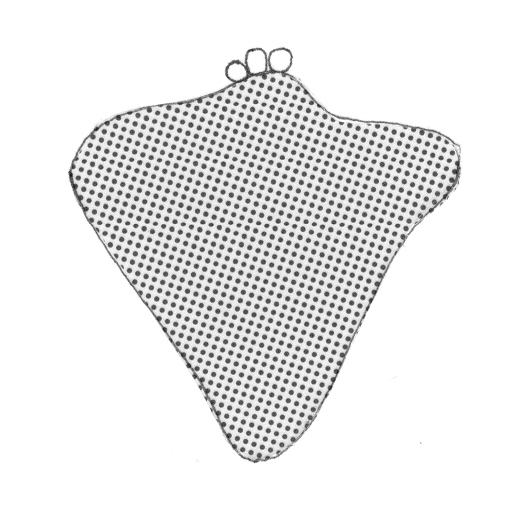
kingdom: Animalia
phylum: Chordata
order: Perciformes
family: Serranidae
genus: Odontanthias
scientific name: Odontanthias elizabethae
